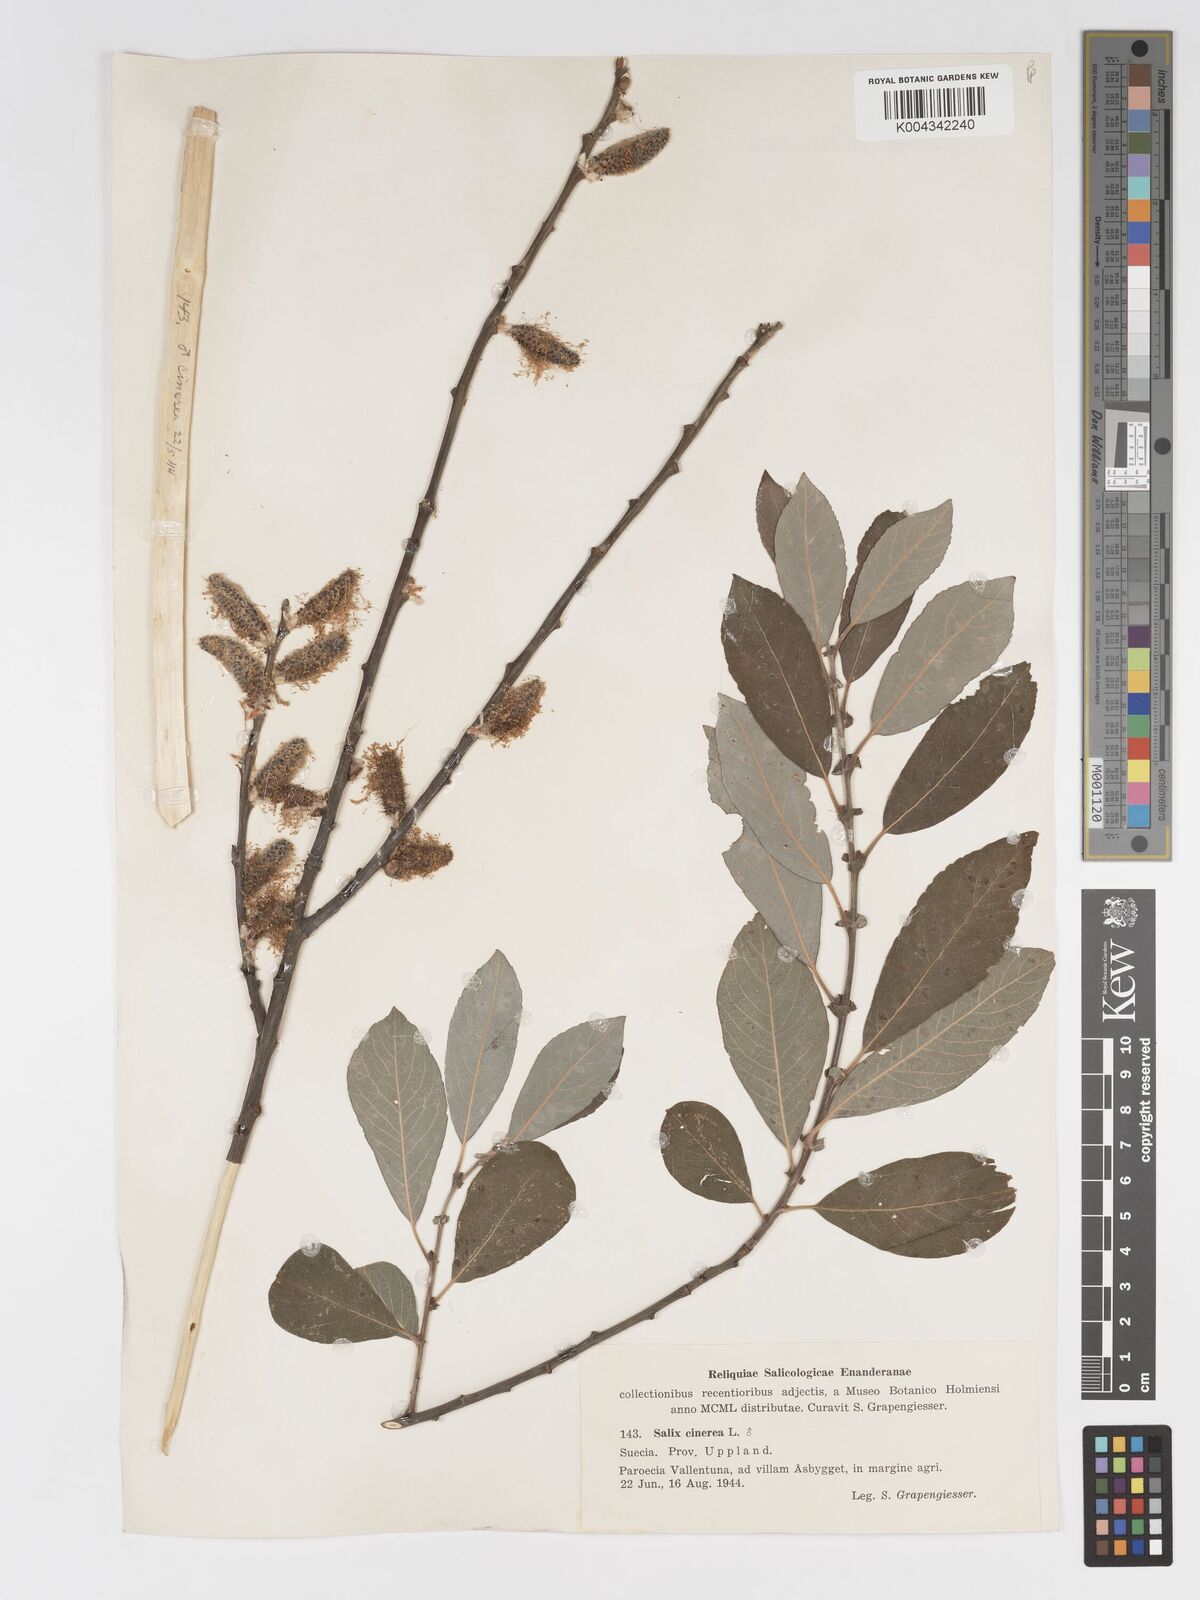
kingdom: Plantae
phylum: Tracheophyta
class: Magnoliopsida
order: Malpighiales
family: Salicaceae
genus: Salix
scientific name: Salix
